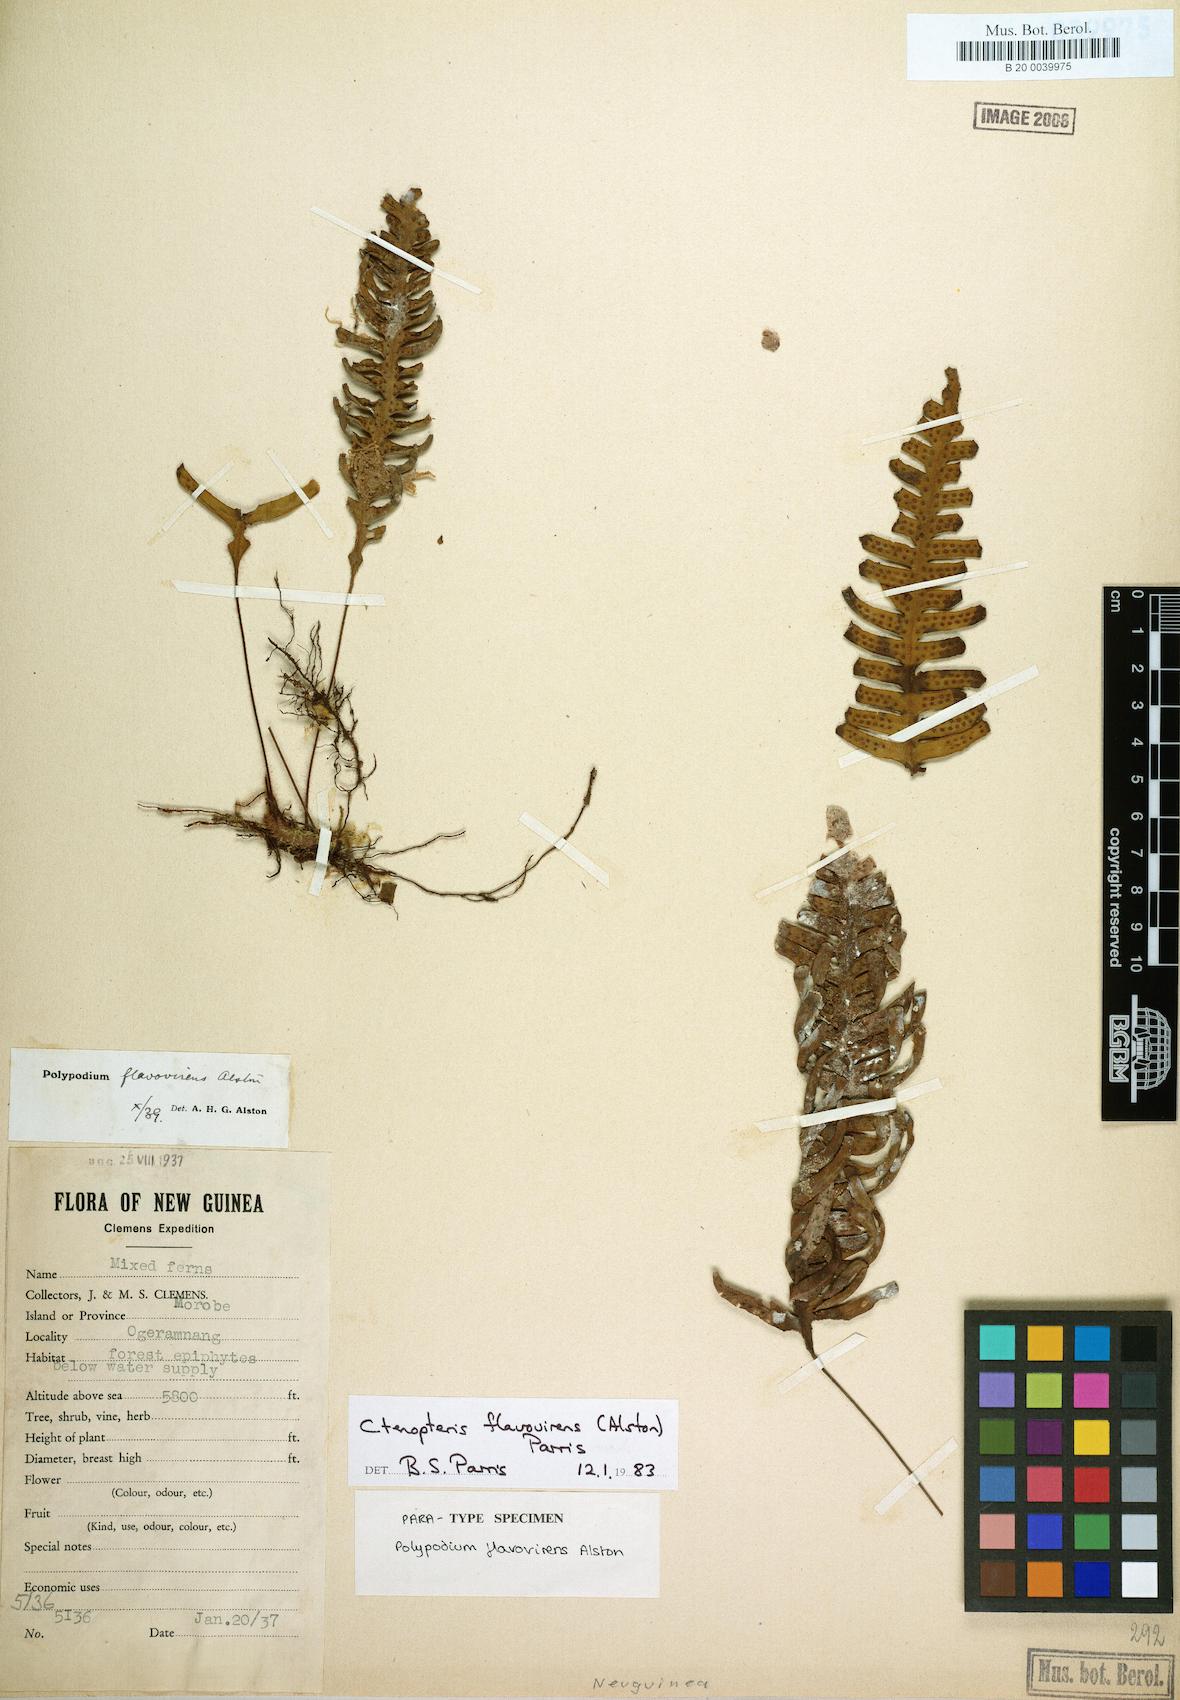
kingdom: Plantae
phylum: Tracheophyta
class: Polypodiopsida
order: Polypodiales
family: Polypodiaceae
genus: Oreogrammitis
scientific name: Oreogrammitis flavovirens
